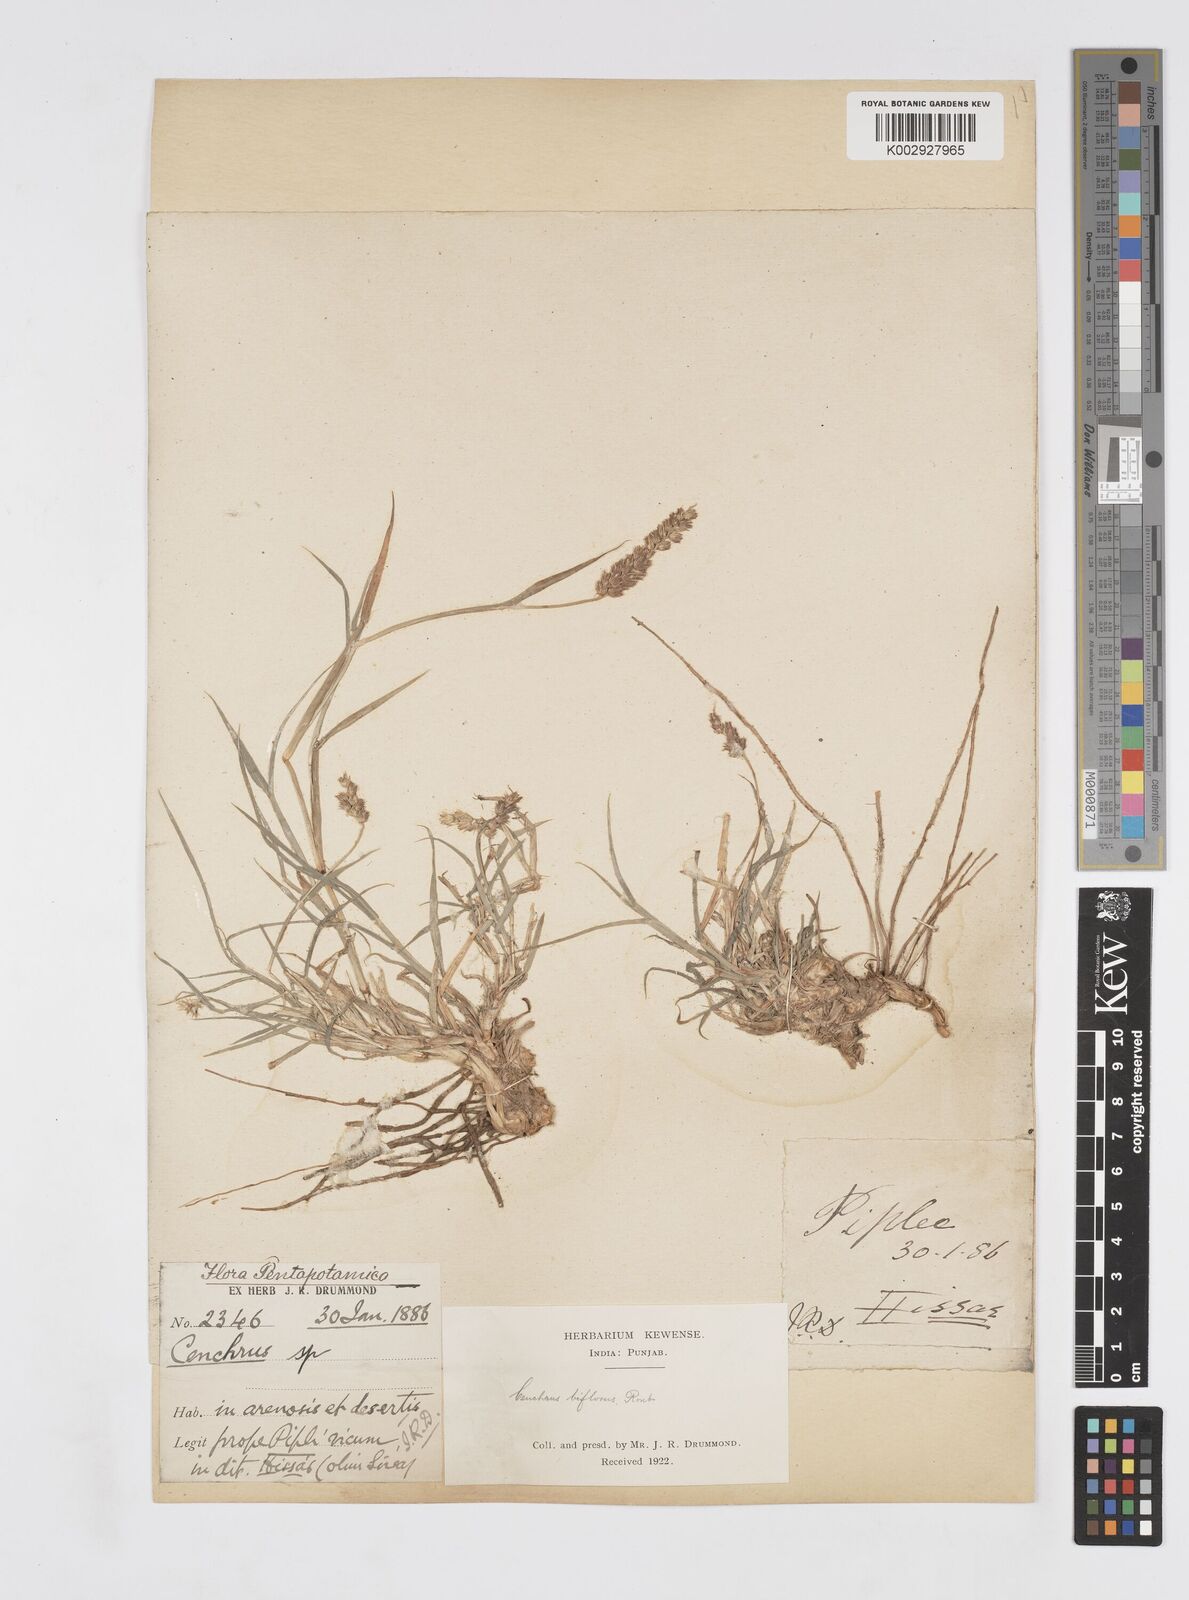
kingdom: Plantae
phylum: Tracheophyta
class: Liliopsida
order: Poales
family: Poaceae
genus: Cenchrus
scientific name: Cenchrus setigerus
